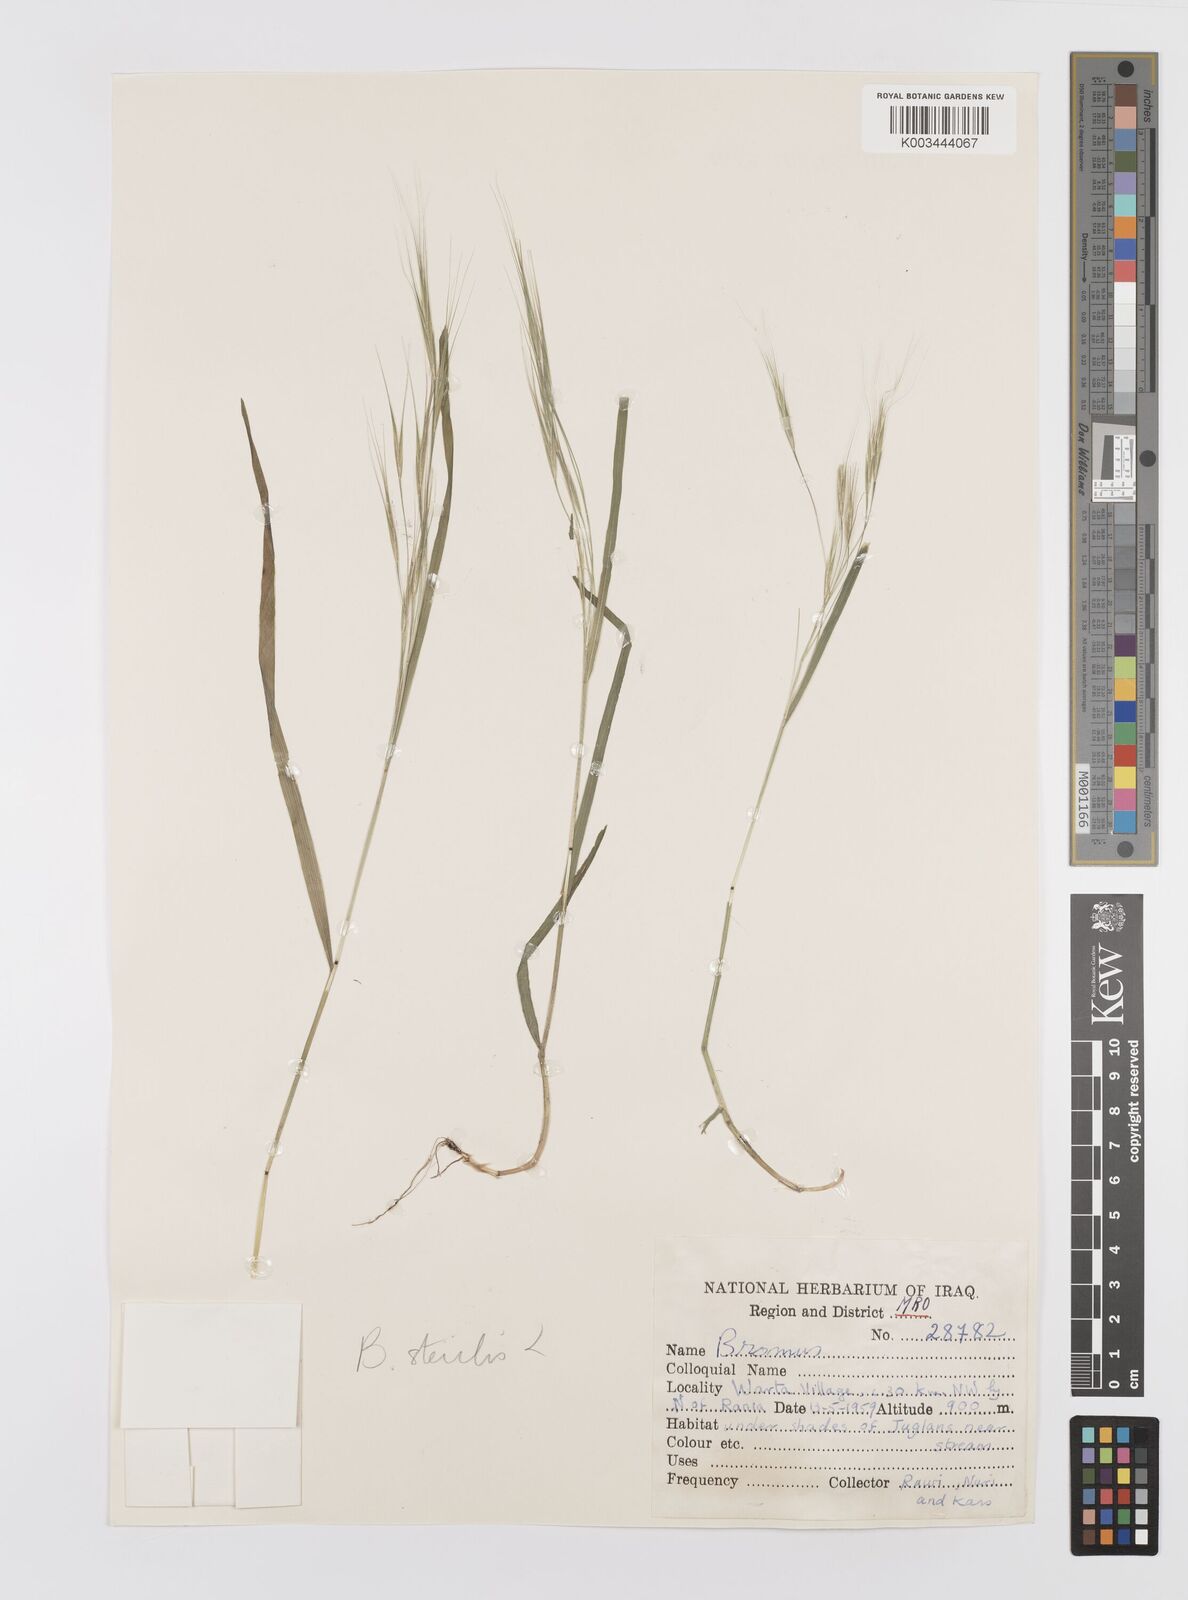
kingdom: Plantae
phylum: Tracheophyta
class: Liliopsida
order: Poales
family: Poaceae
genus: Bromus
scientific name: Bromus sterilis
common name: Poverty brome
